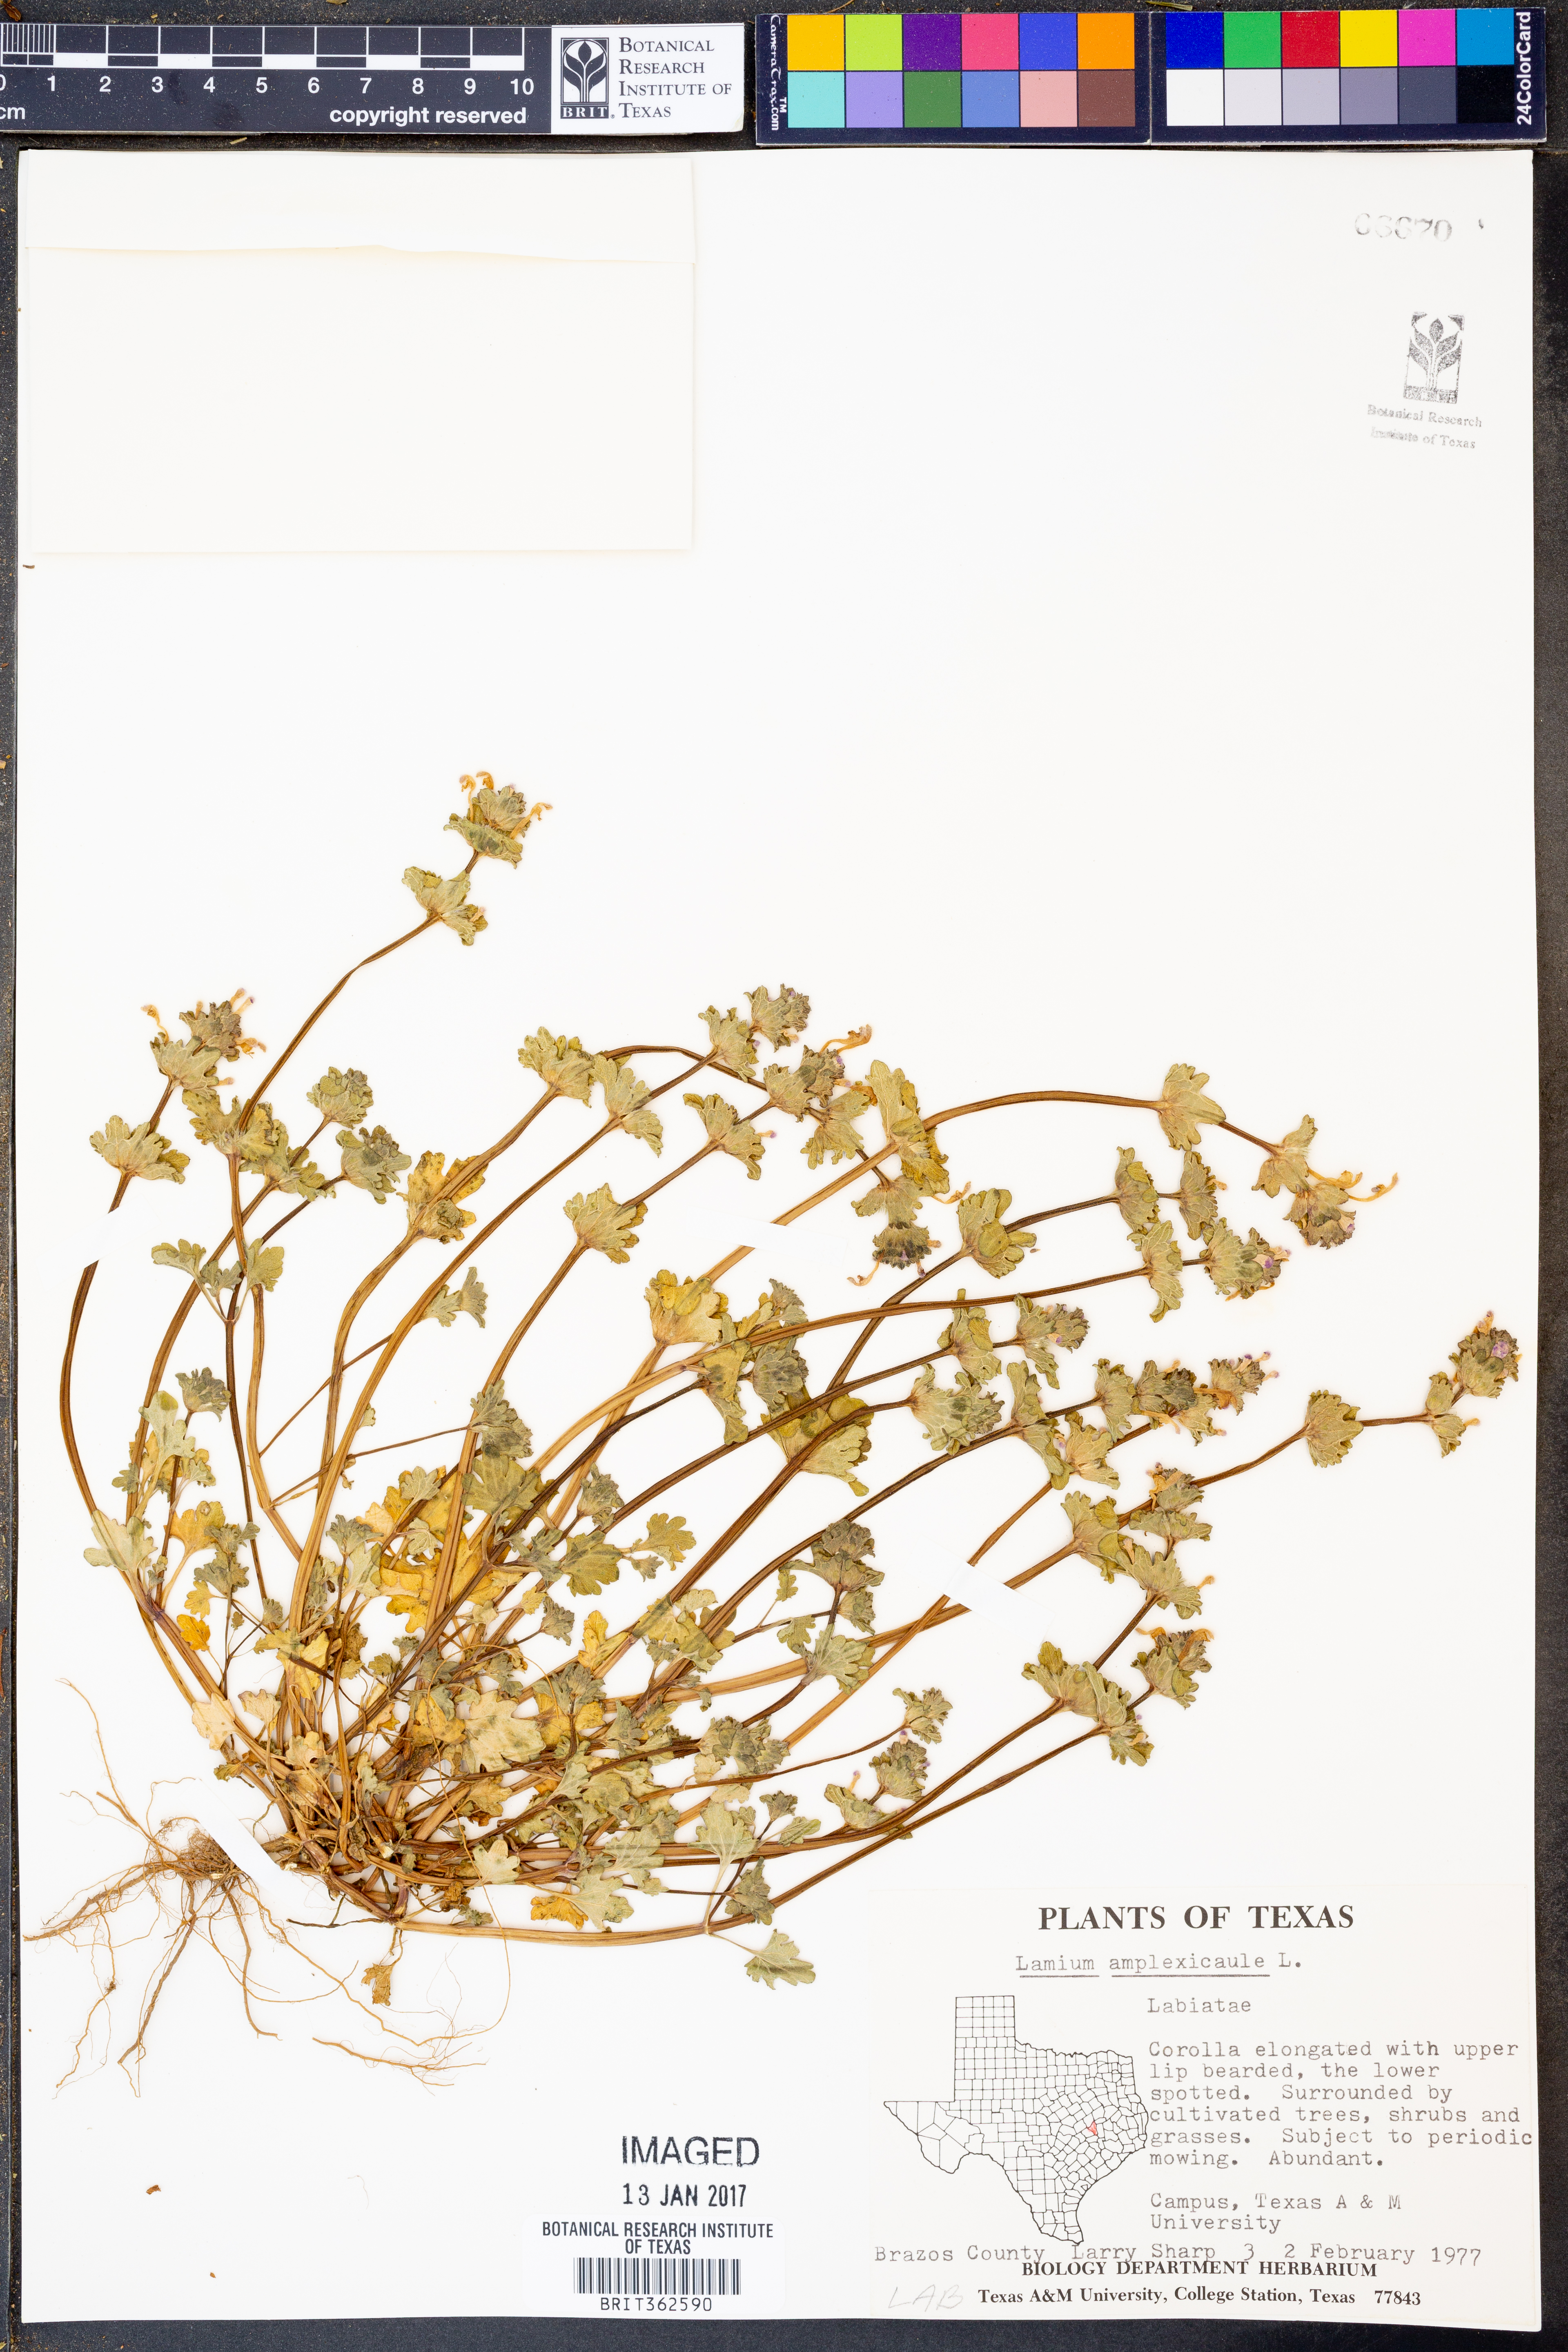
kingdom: Plantae
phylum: Tracheophyta
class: Magnoliopsida
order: Lamiales
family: Lamiaceae
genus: Lamium
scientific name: Lamium amplexicaule
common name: Henbit dead-nettle
